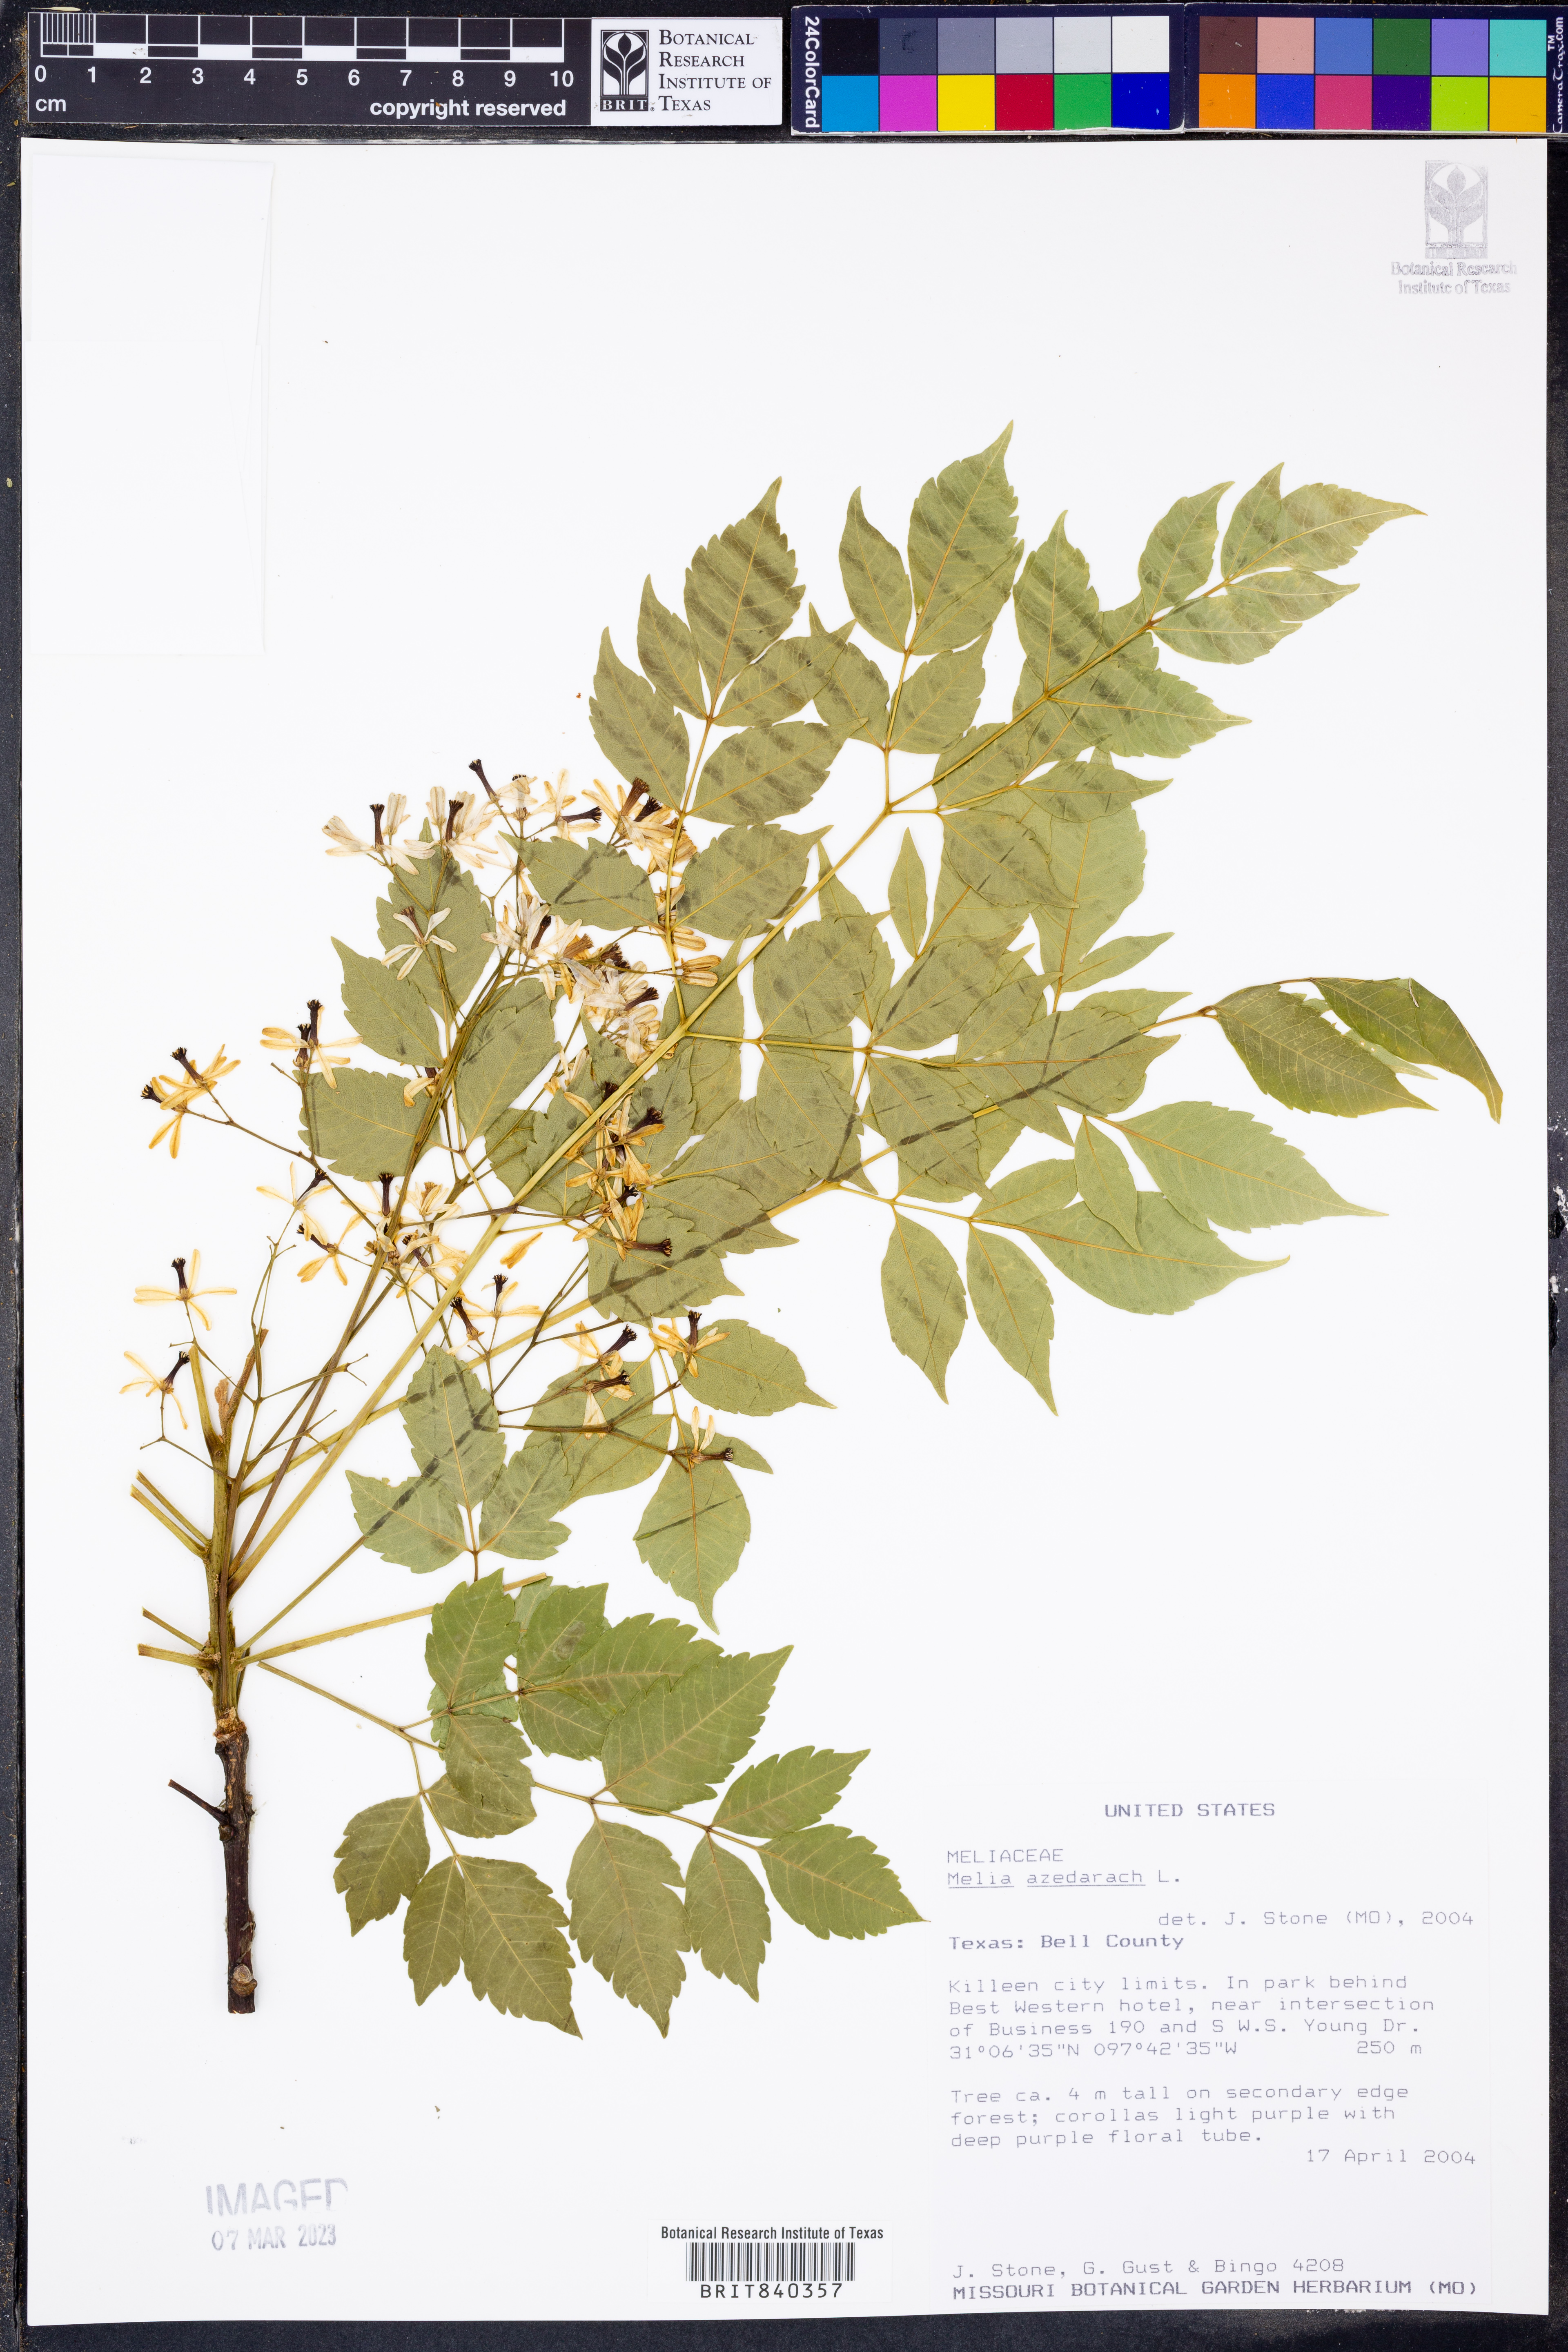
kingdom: Plantae
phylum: Tracheophyta
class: Magnoliopsida
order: Sapindales
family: Meliaceae
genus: Melia
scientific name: Melia azedarach
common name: Chinaberrytree
